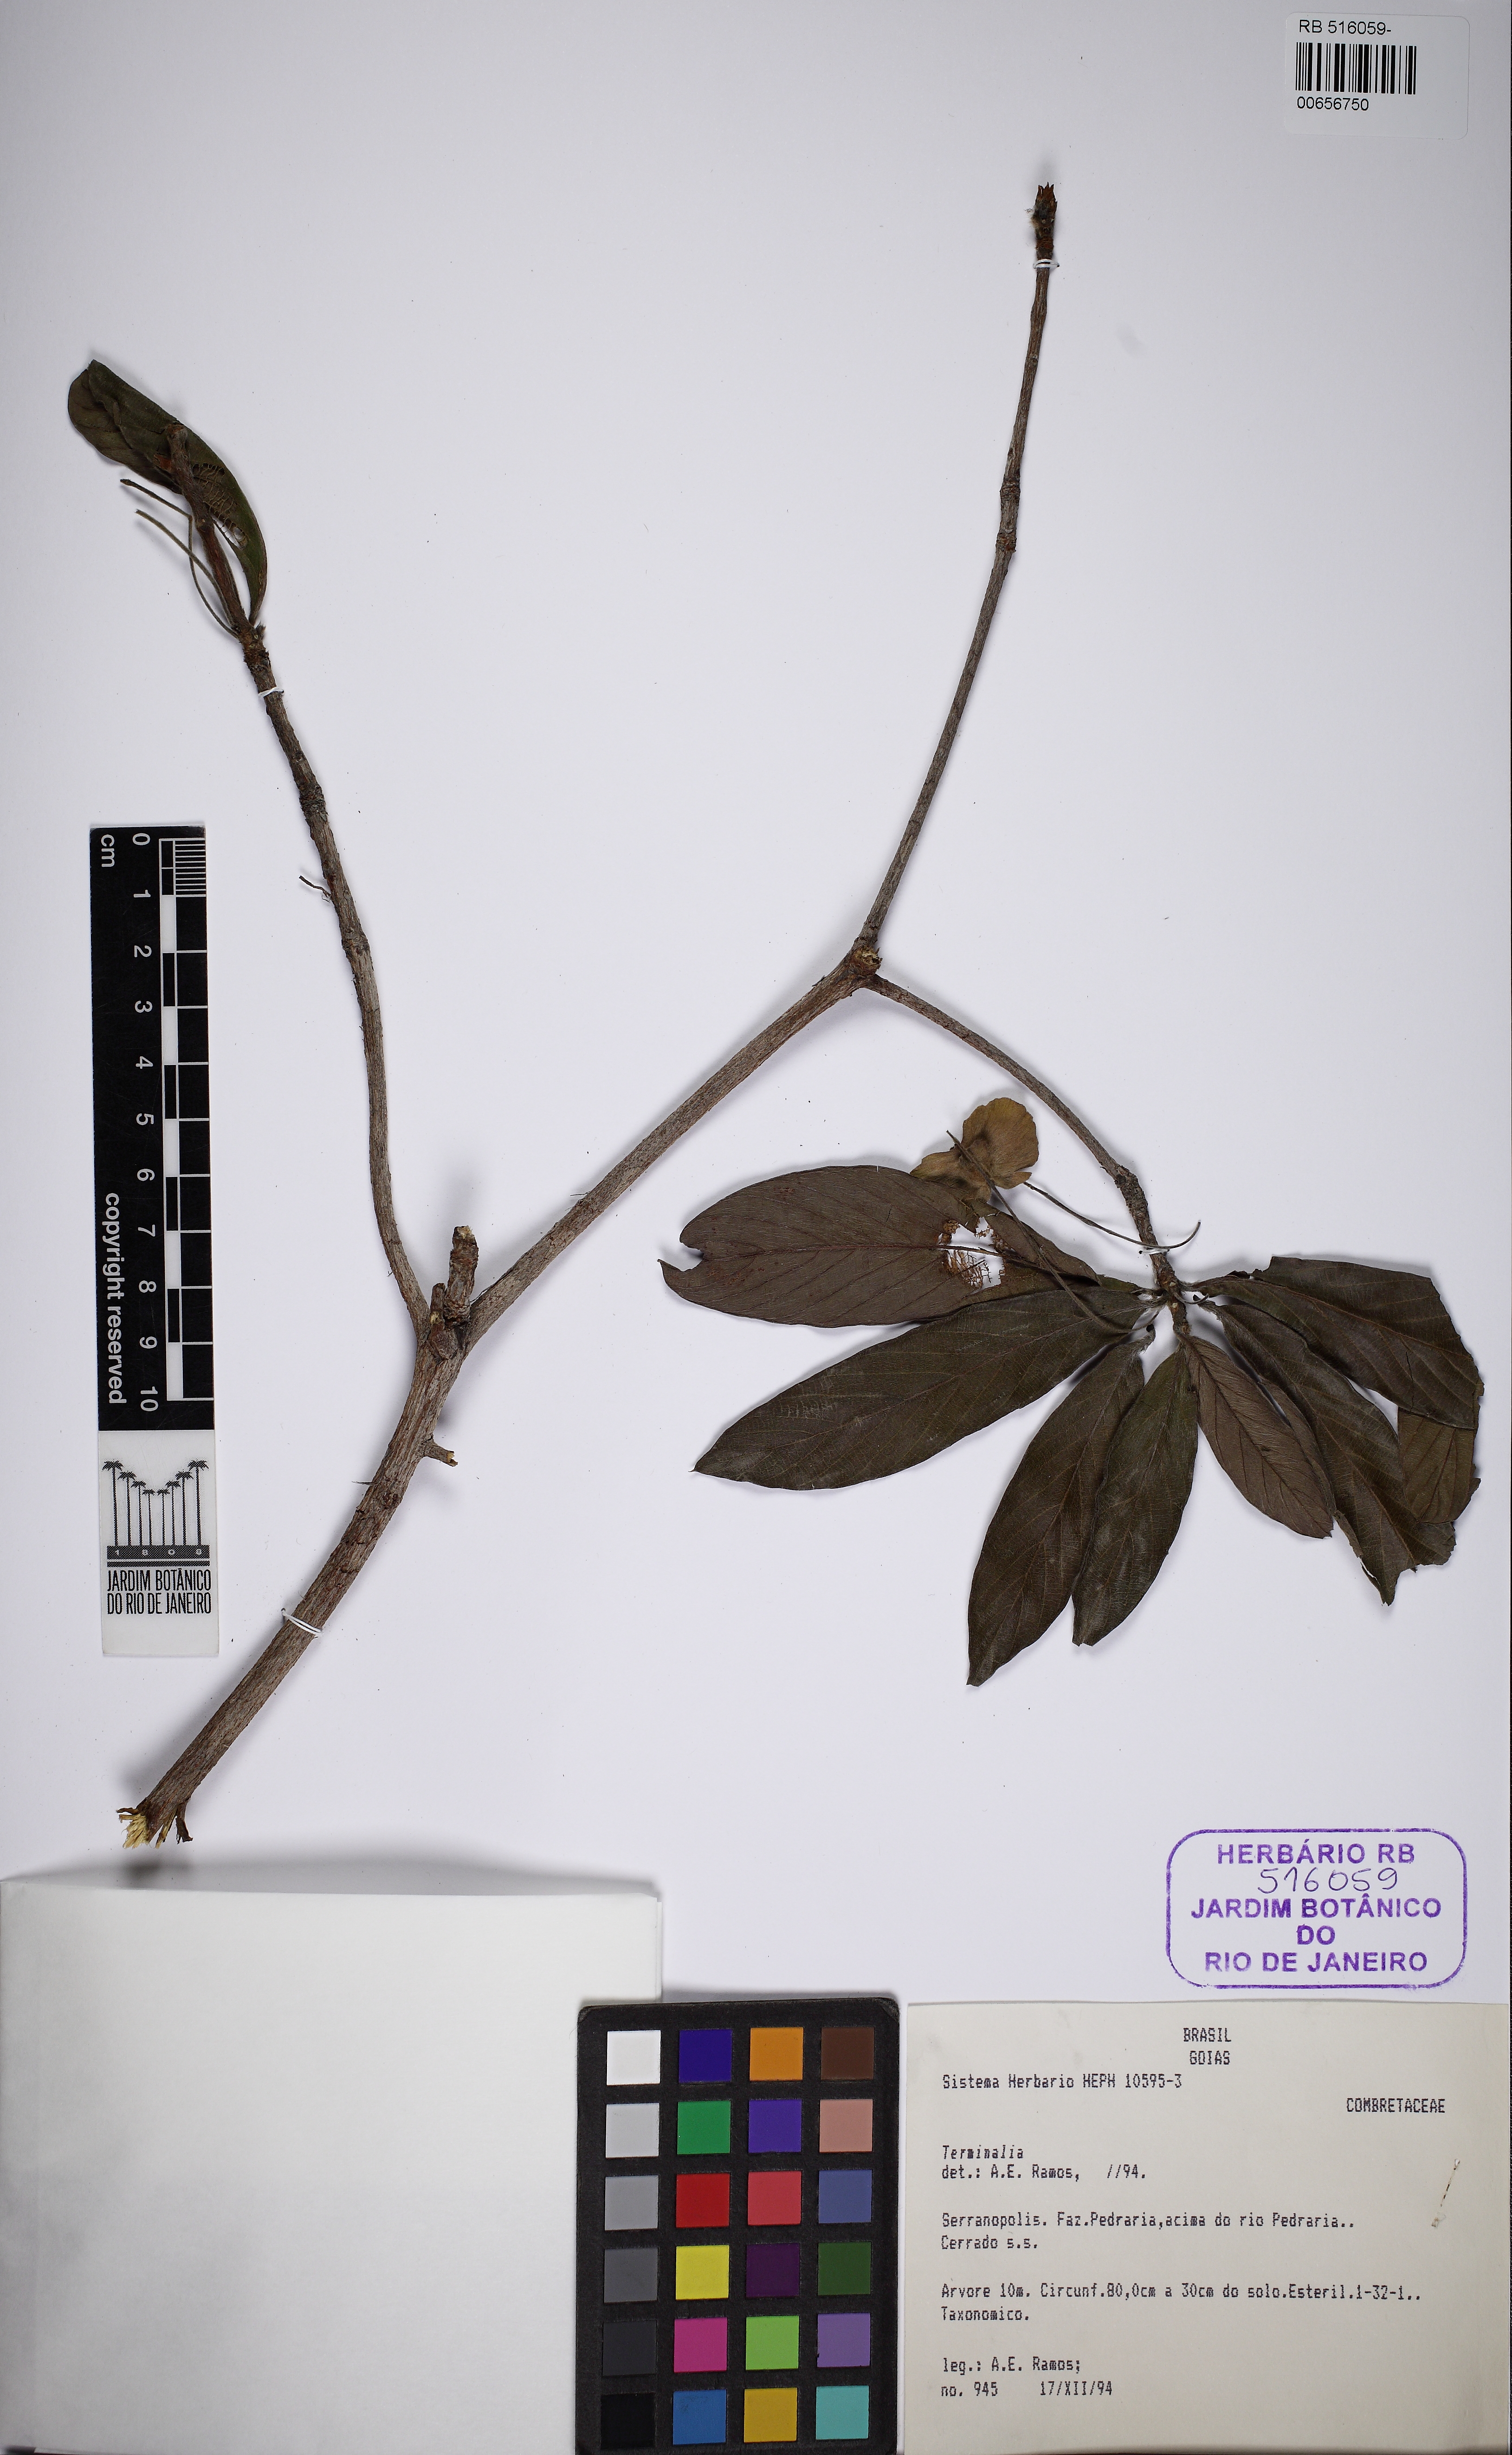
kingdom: Plantae
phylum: Tracheophyta
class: Magnoliopsida
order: Myrtales
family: Combretaceae
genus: Terminalia
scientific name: Terminalia fagifolia
